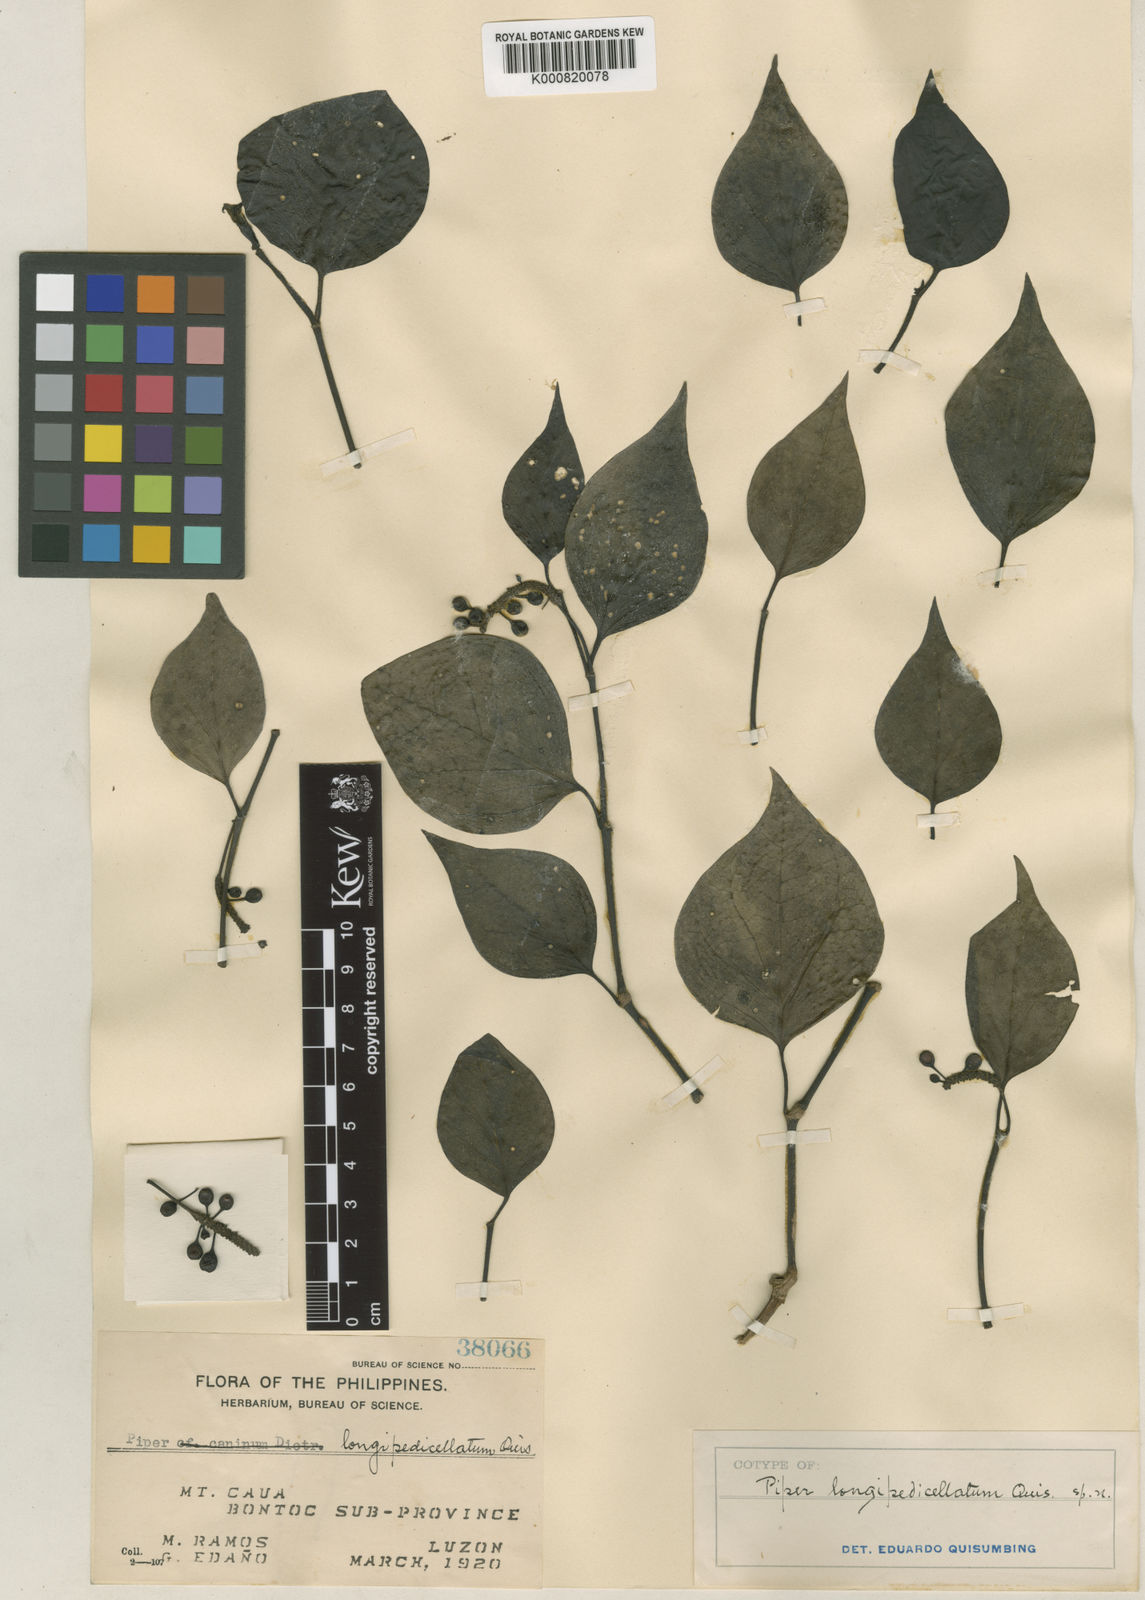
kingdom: Plantae
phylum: Tracheophyta
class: Magnoliopsida
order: Piperales
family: Piperaceae
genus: Piper
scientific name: Piper longipedicellatum
